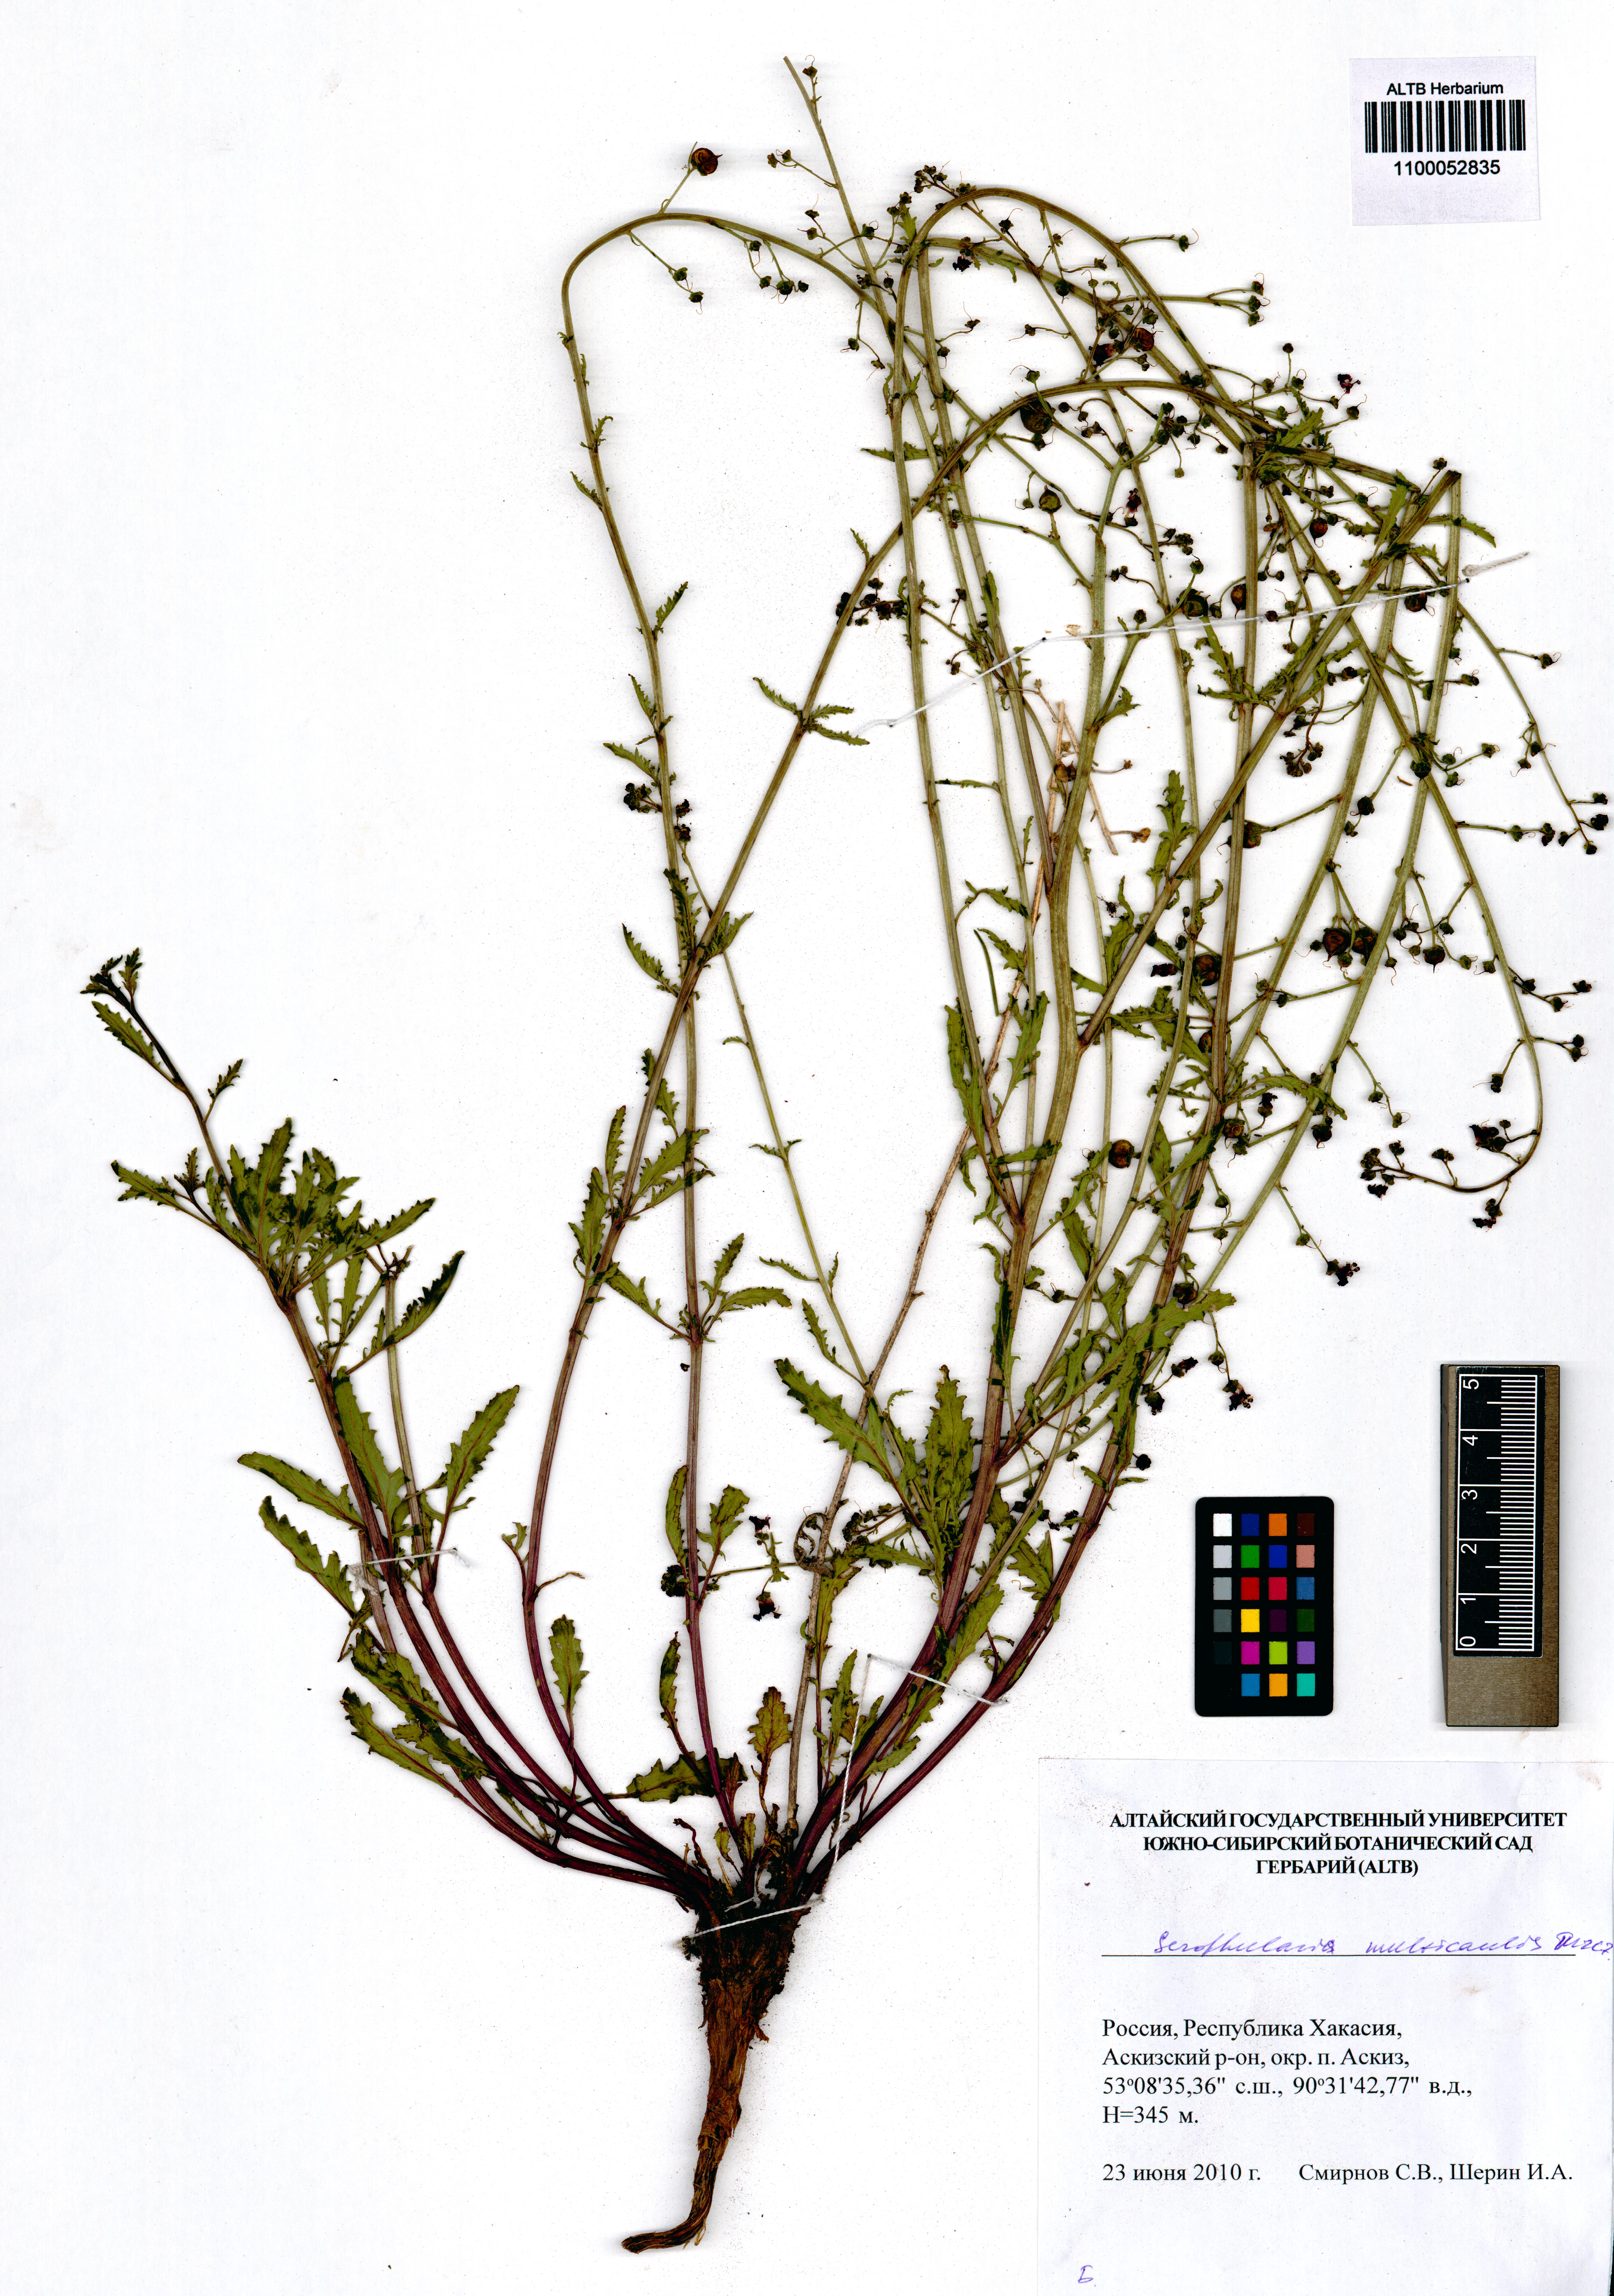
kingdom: Plantae
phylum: Tracheophyta
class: Magnoliopsida
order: Lamiales
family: Scrophulariaceae
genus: Scrophularia
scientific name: Scrophularia multicaulis
